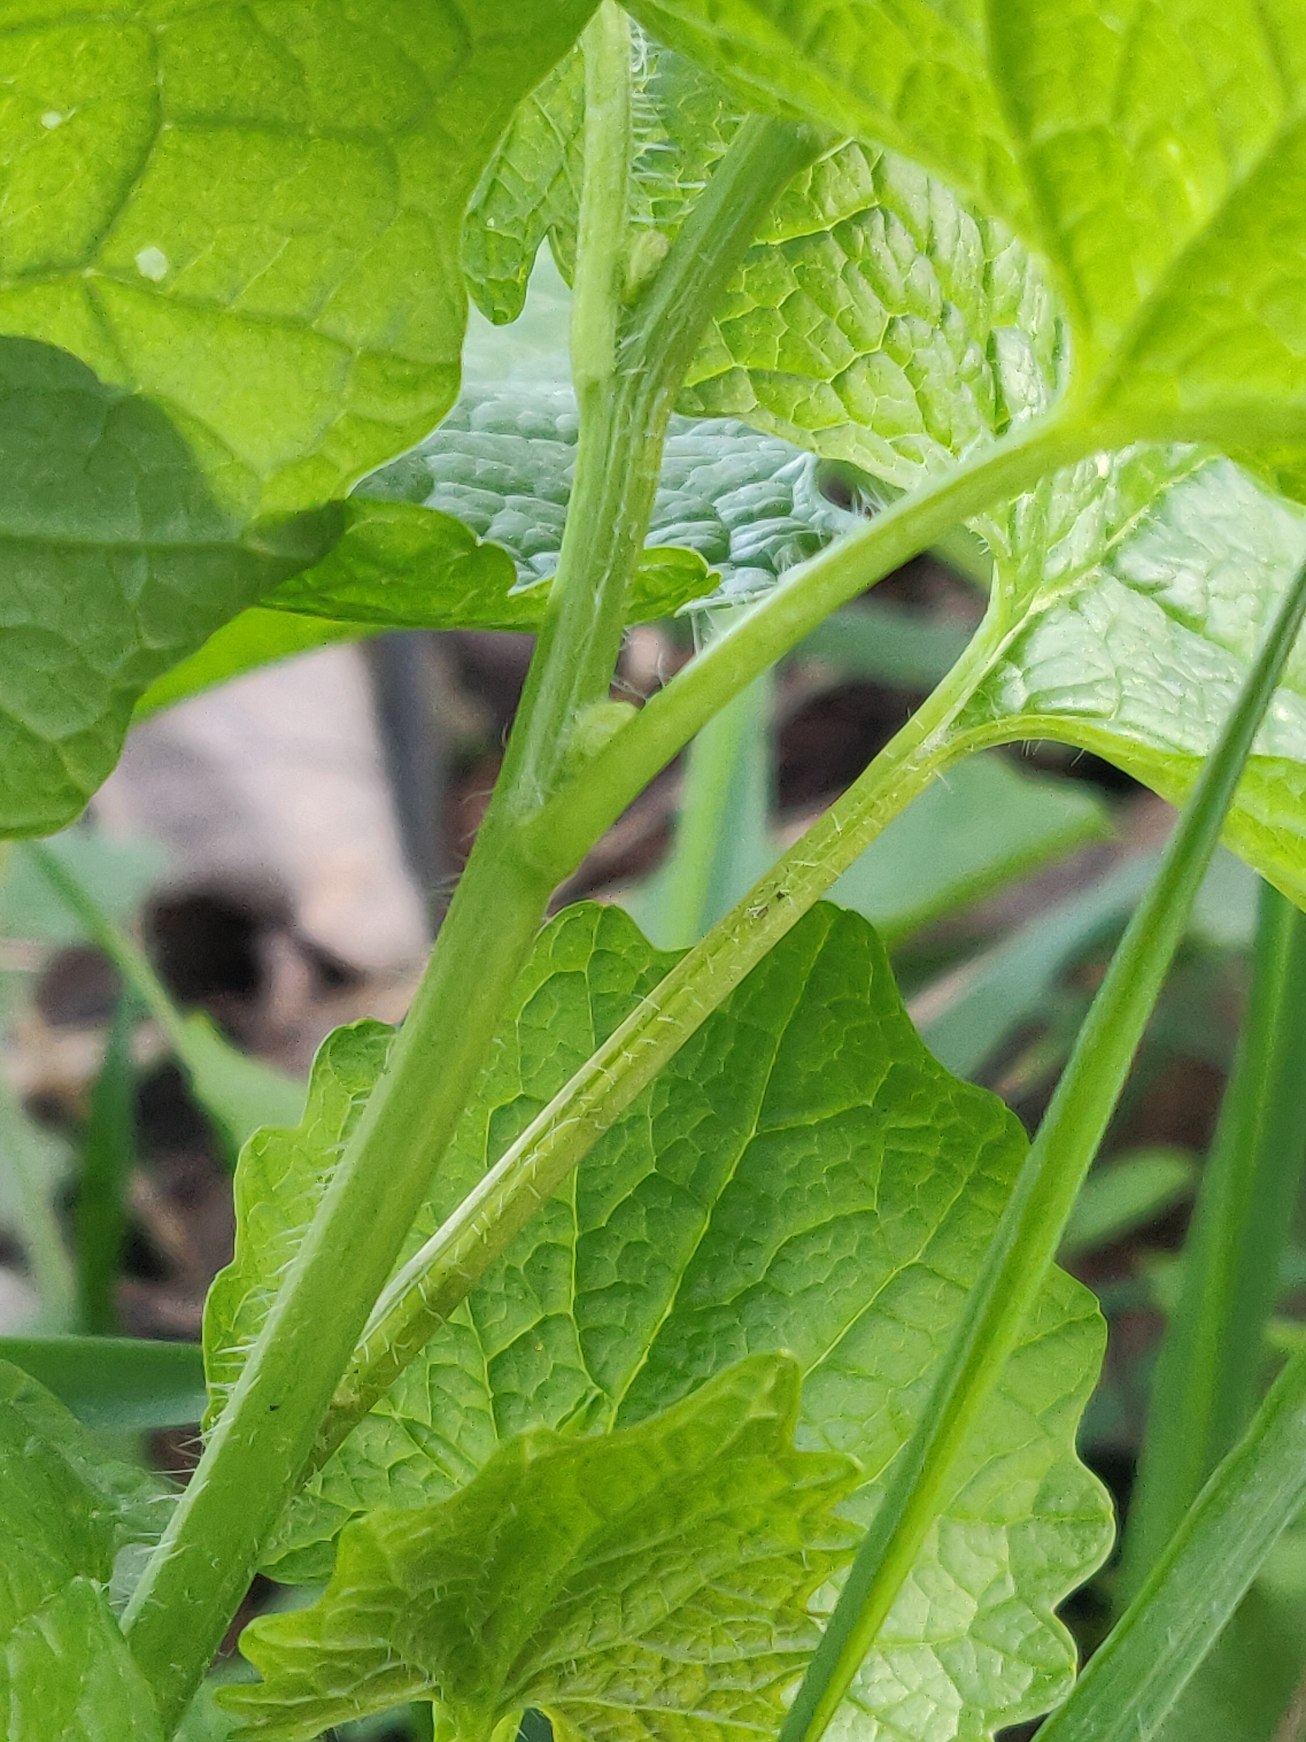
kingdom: Plantae
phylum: Tracheophyta
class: Magnoliopsida
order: Brassicales
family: Brassicaceae
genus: Alliaria
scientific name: Alliaria petiolata
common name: Løgkarse
